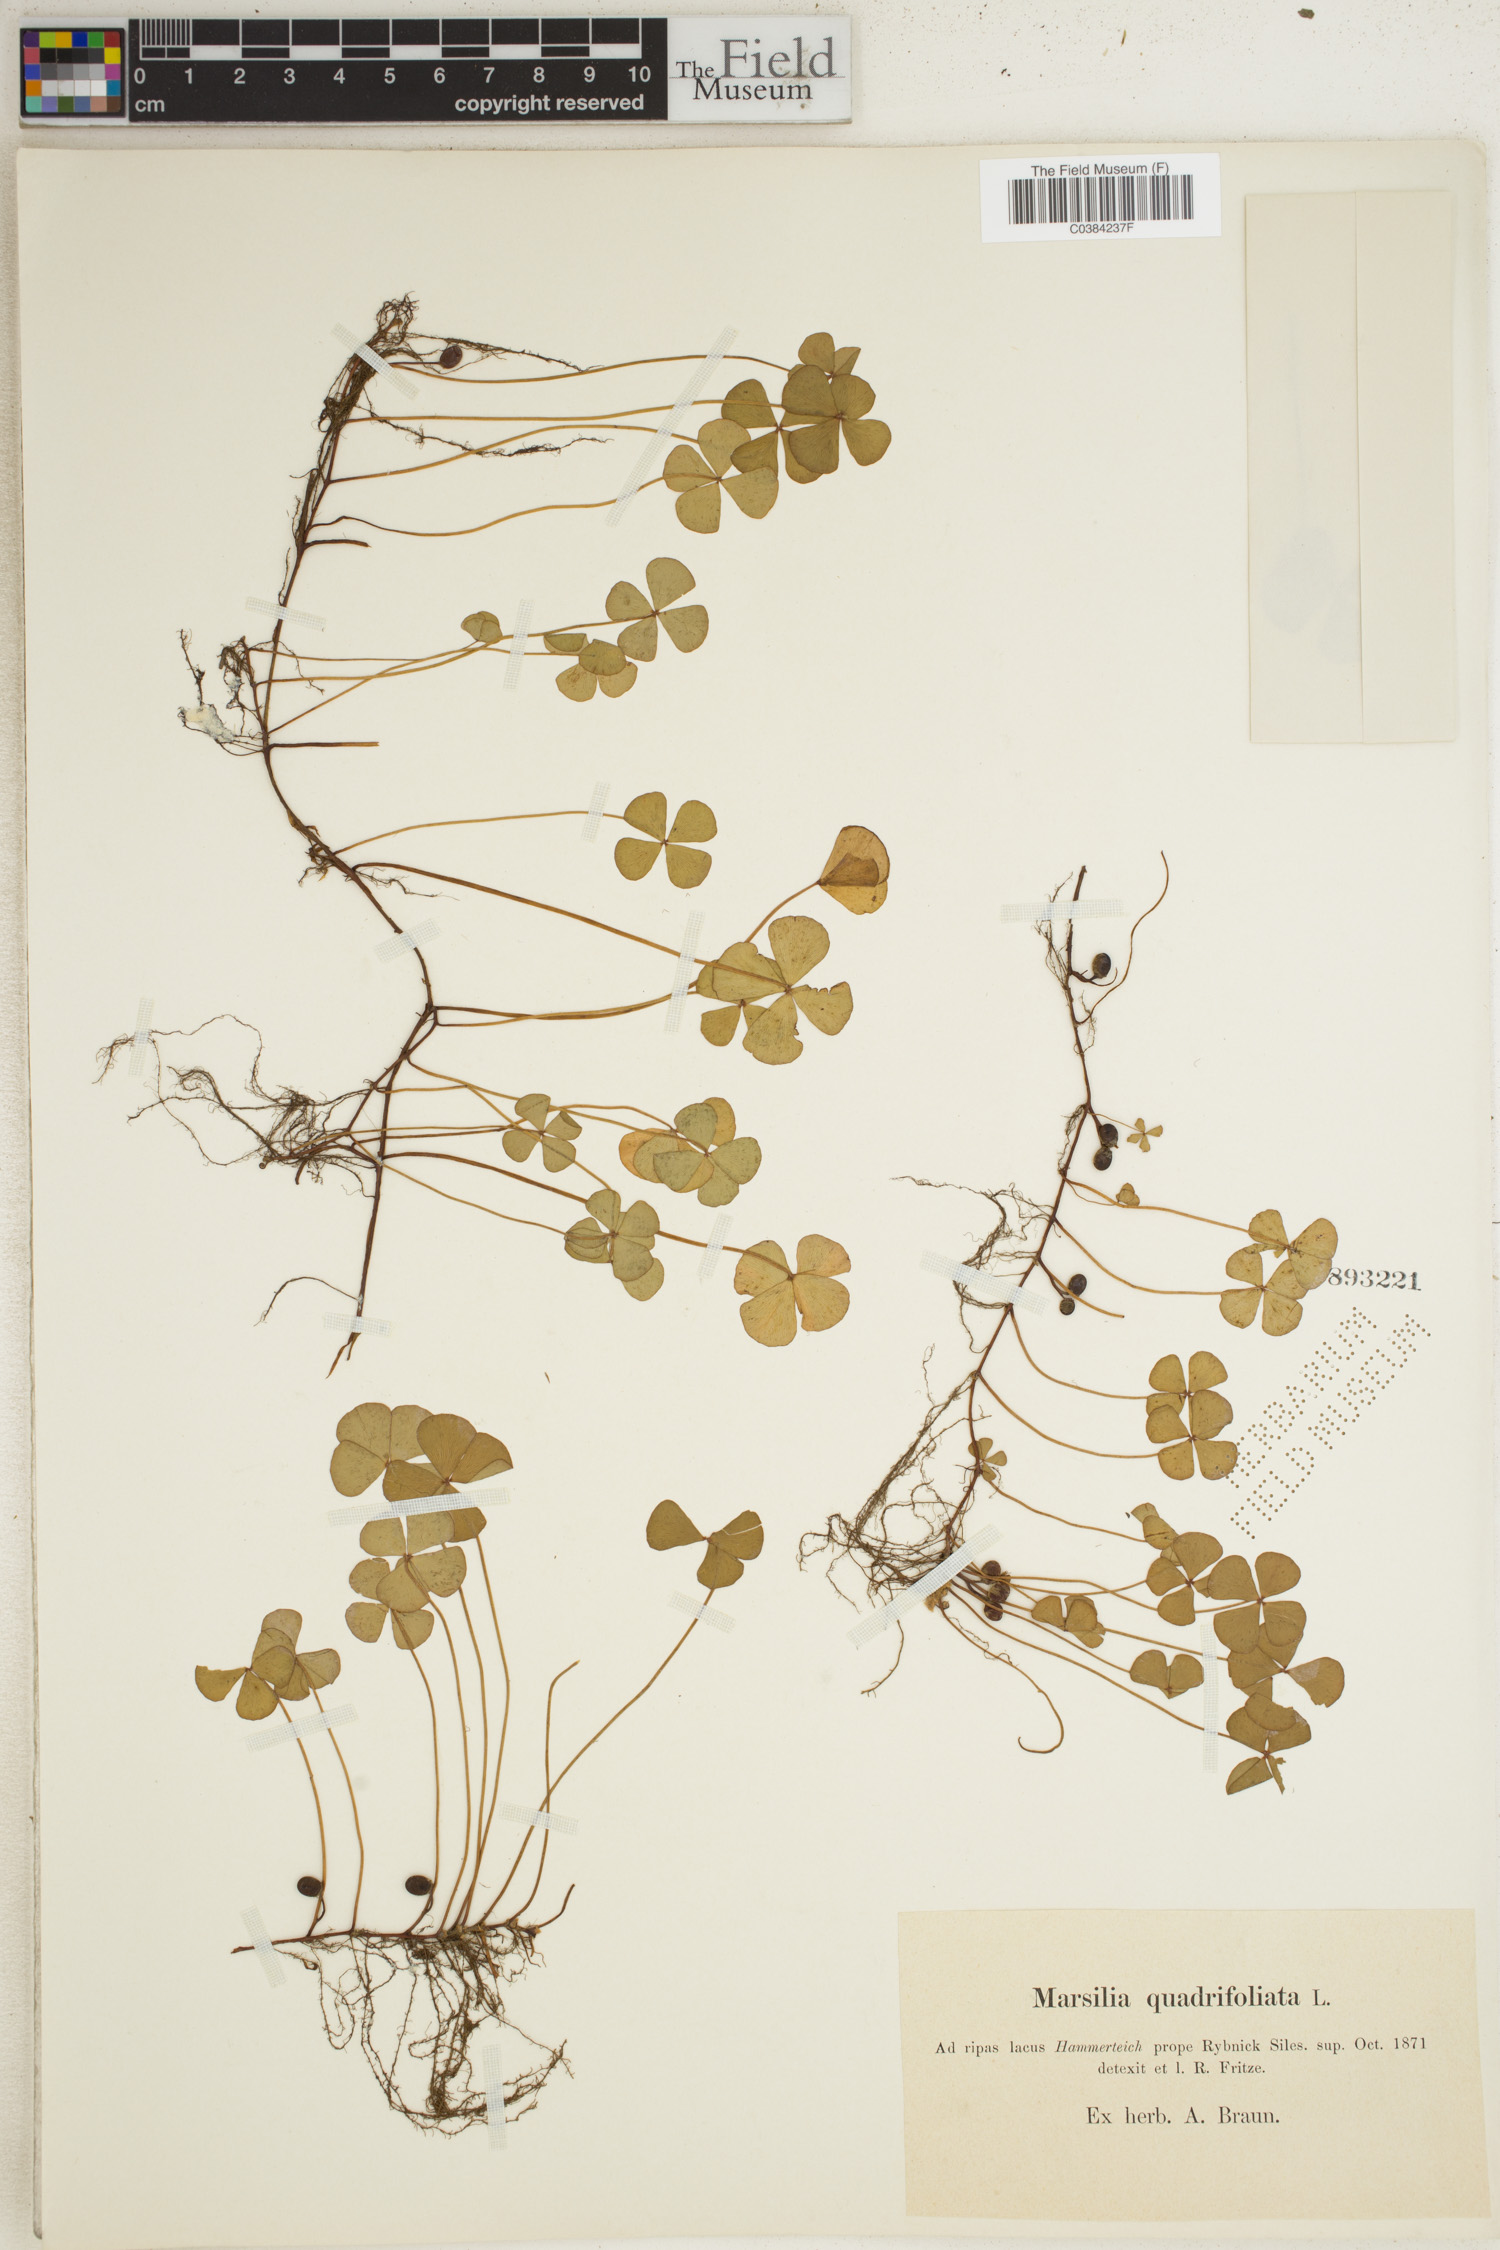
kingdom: Plantae
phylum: Tracheophyta
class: Polypodiopsida
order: Salviniales
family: Marsileaceae
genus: Marsilea
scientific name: Marsilea quadrifolia
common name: Water shamrock
